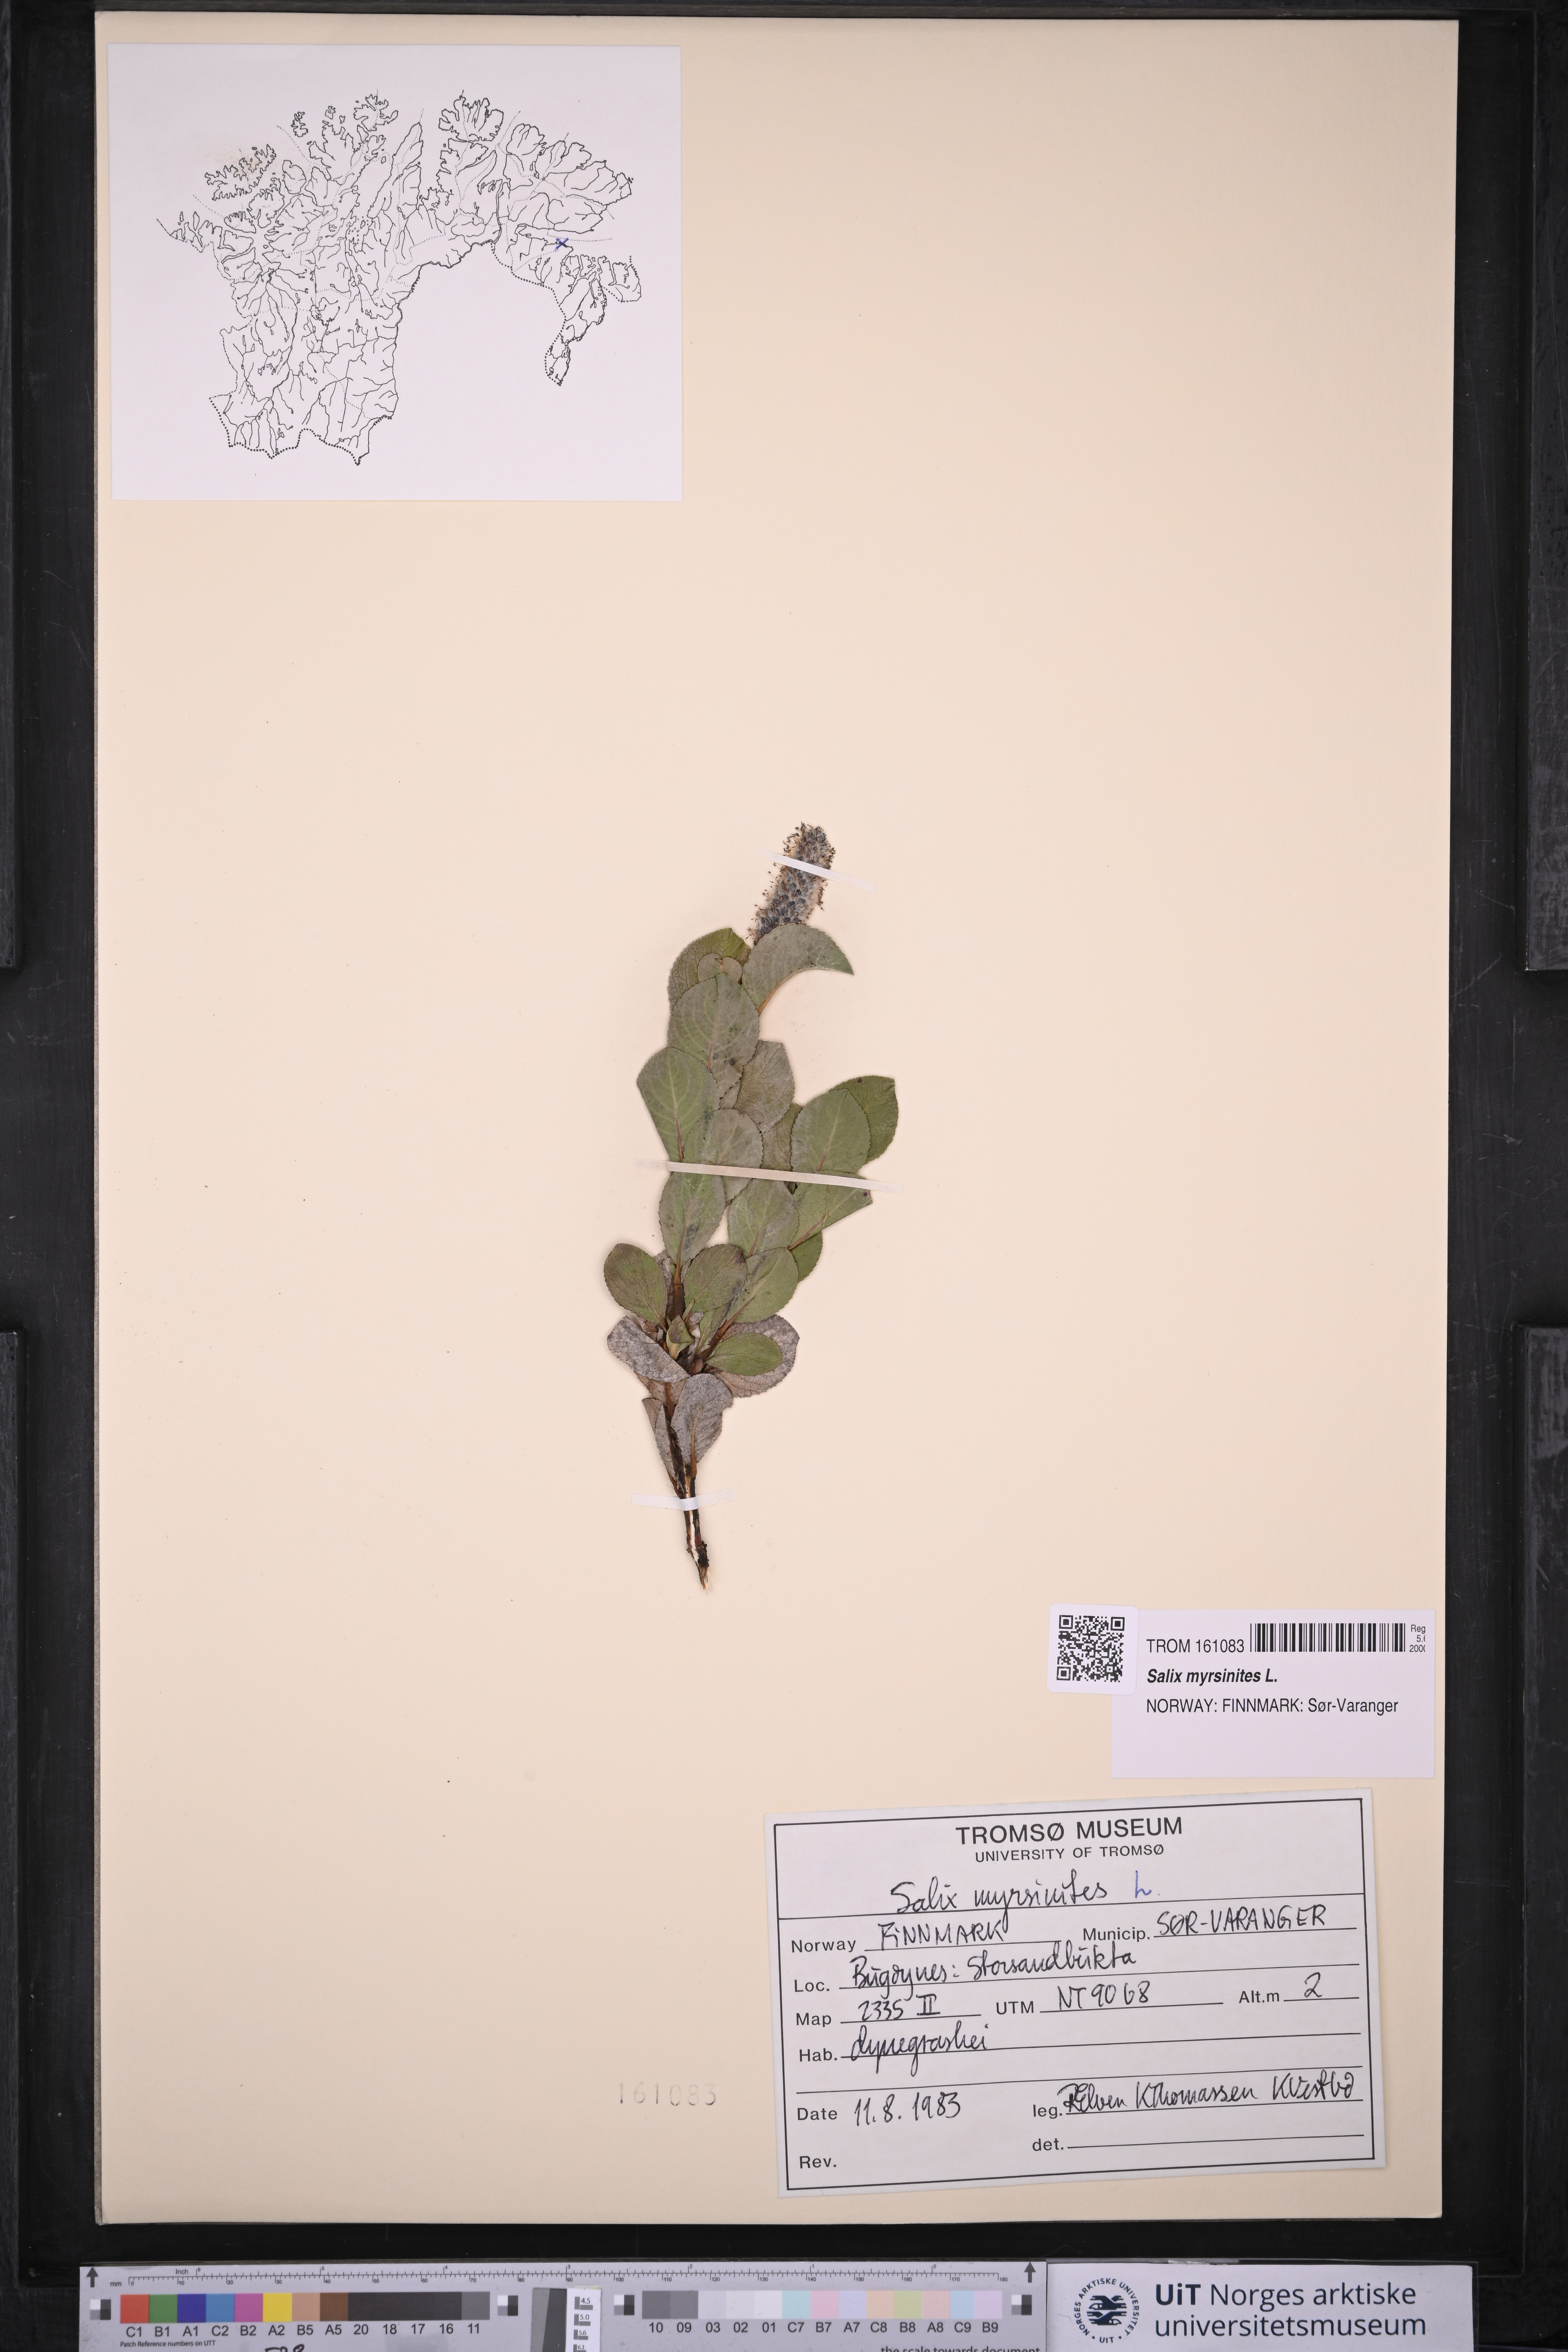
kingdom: Plantae
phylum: Tracheophyta
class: Magnoliopsida
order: Malpighiales
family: Salicaceae
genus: Salix
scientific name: Salix myrsinites
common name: Myrtle willow
